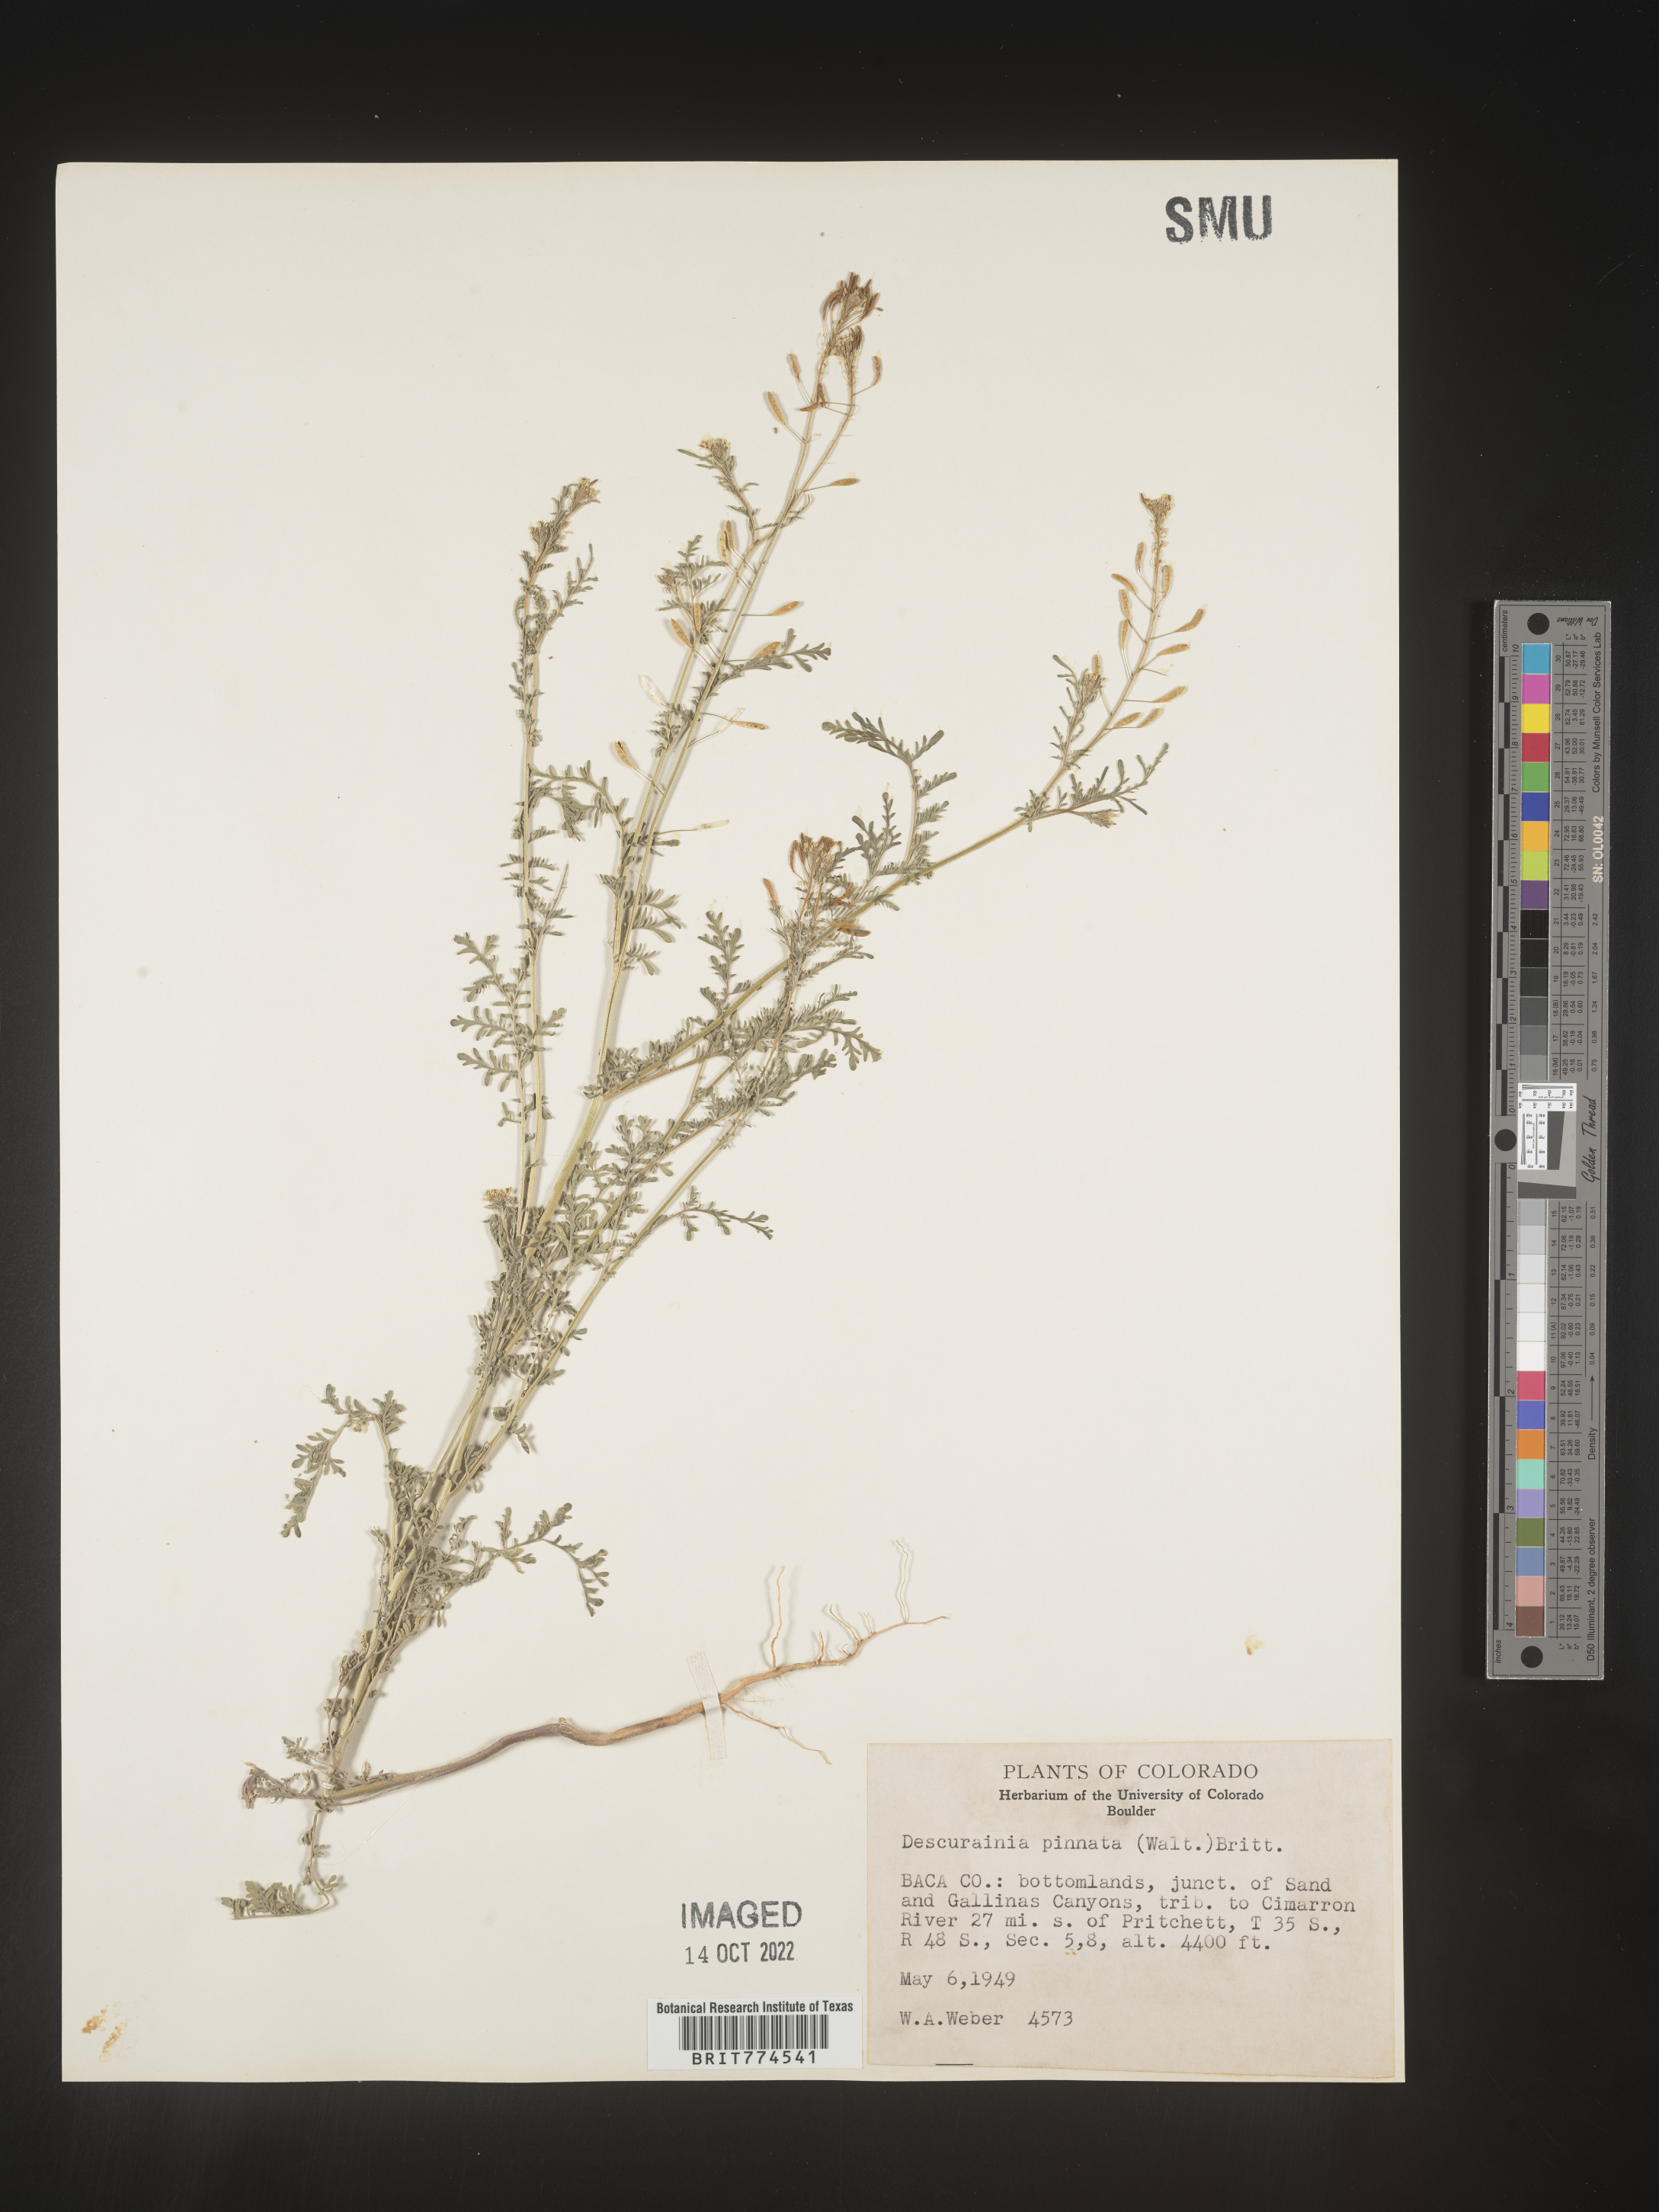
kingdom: Plantae
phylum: Tracheophyta
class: Magnoliopsida
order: Brassicales
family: Brassicaceae
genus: Descurainia
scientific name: Descurainia pinnata
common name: Western tansy mustard
